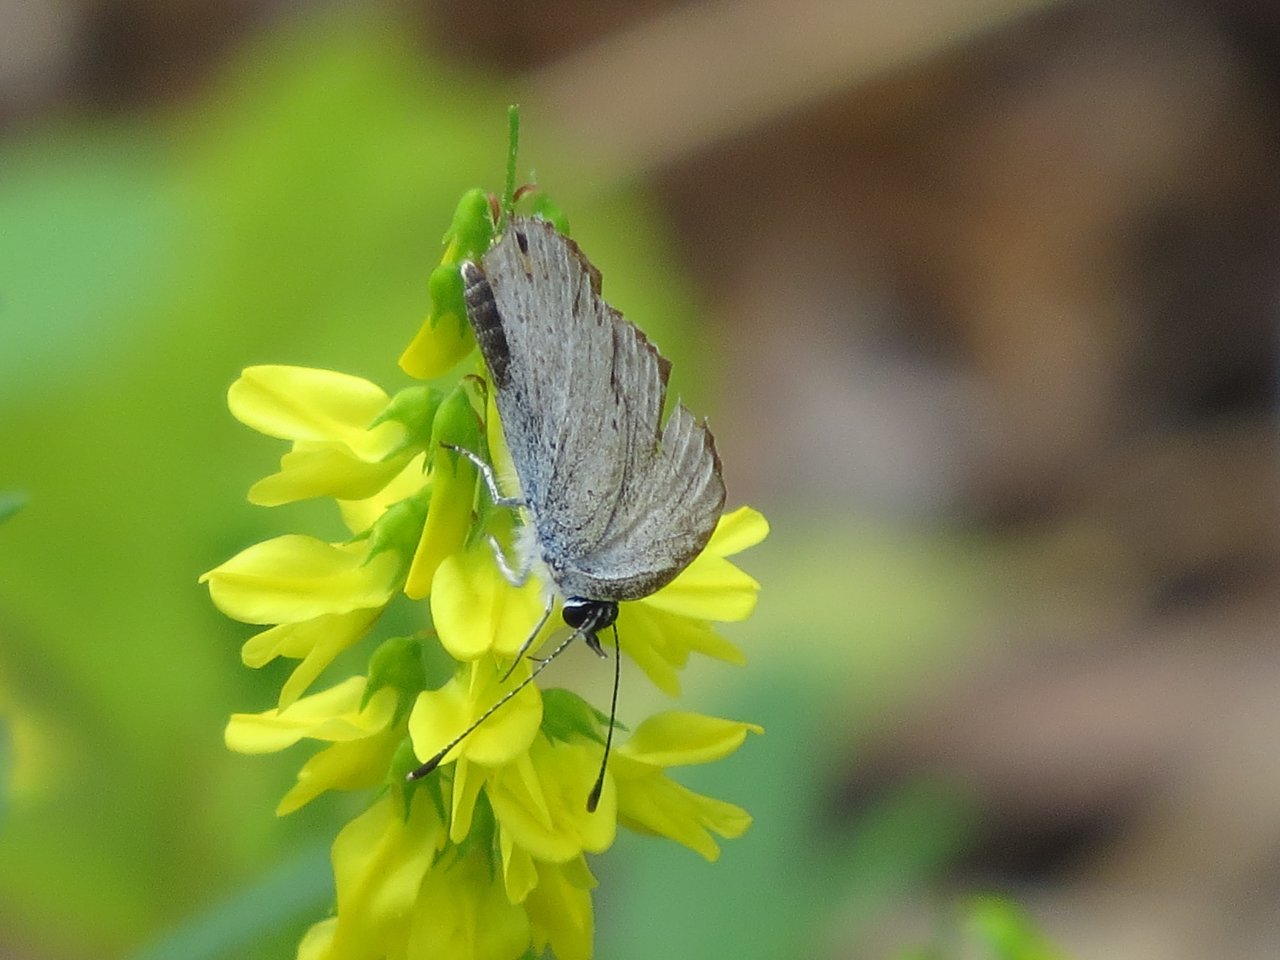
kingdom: Animalia
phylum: Arthropoda
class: Insecta
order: Lepidoptera
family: Lycaenidae
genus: Elkalyce
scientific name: Elkalyce amyntula
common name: Western Tailed-Blue
